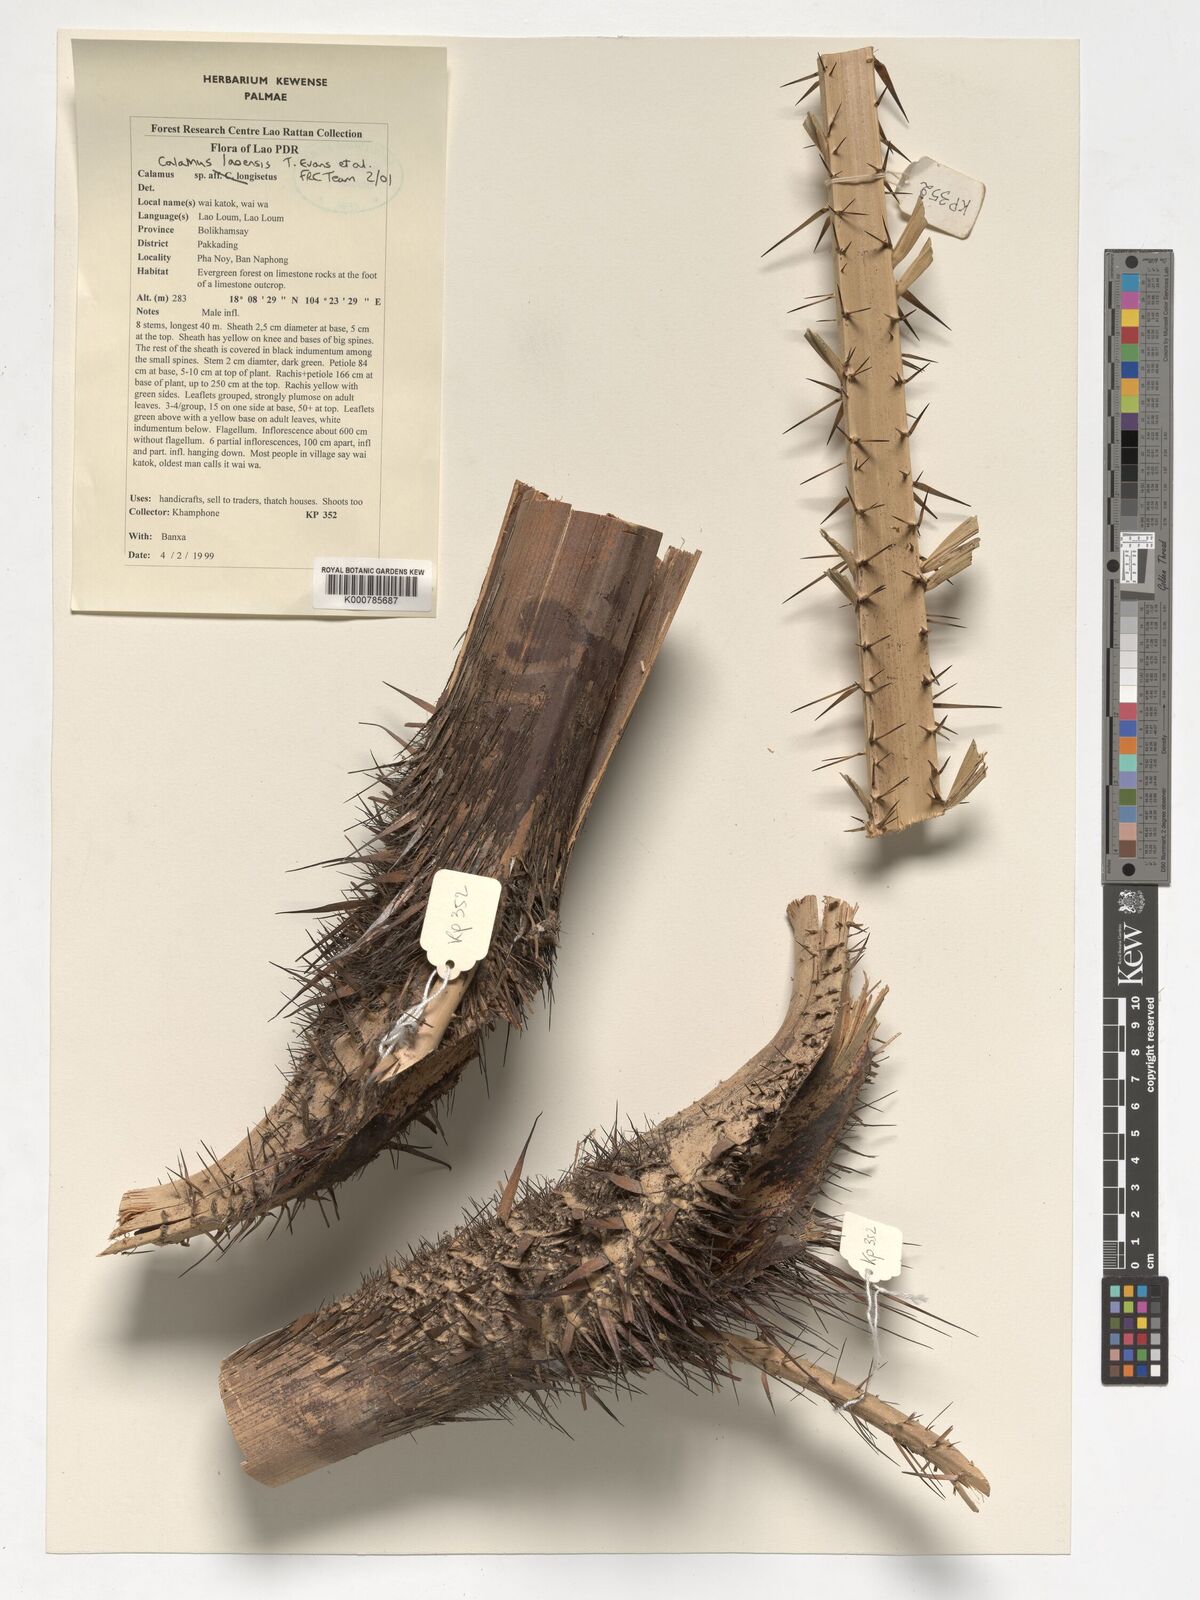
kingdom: Plantae
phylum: Tracheophyta
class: Liliopsida
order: Arecales
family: Arecaceae
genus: Calamus
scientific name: Calamus laoensis
